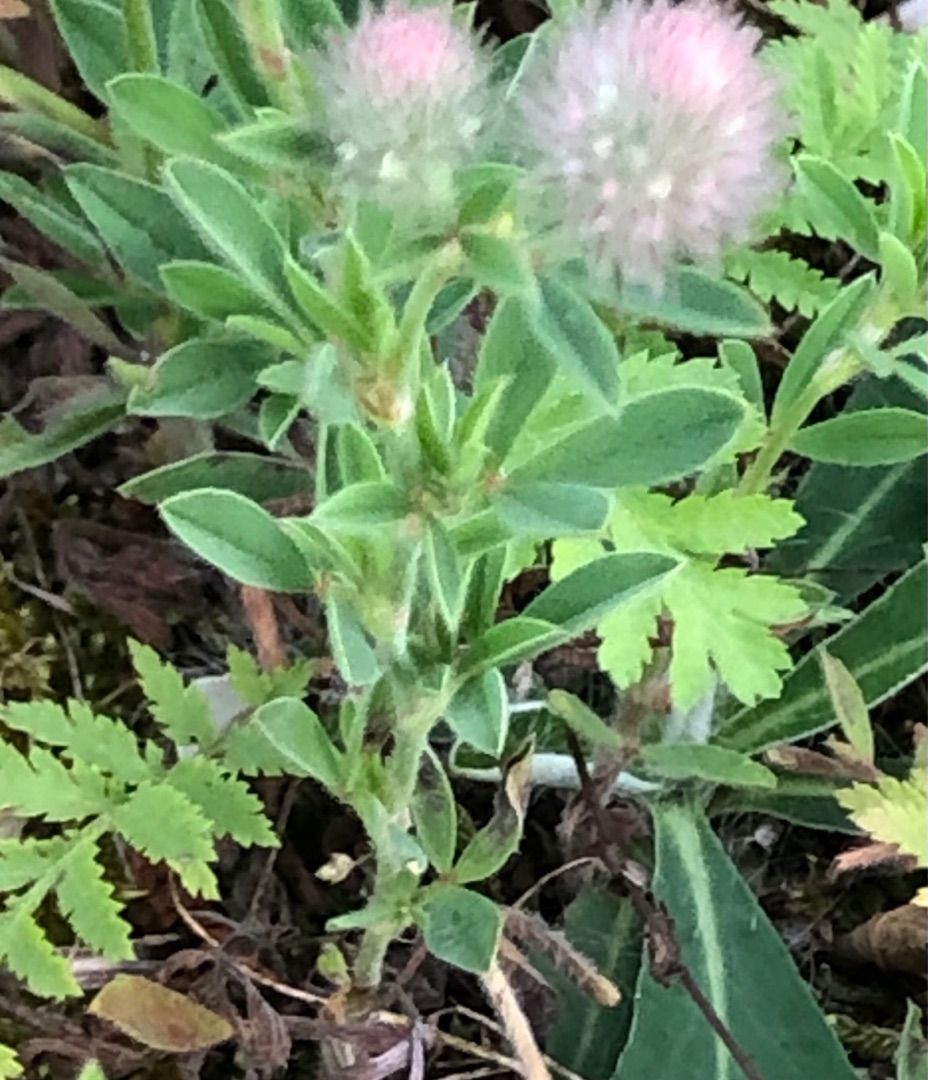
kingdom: Plantae
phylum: Tracheophyta
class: Magnoliopsida
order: Fabales
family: Fabaceae
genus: Trifolium
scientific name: Trifolium arvense
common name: Hare-kløver
